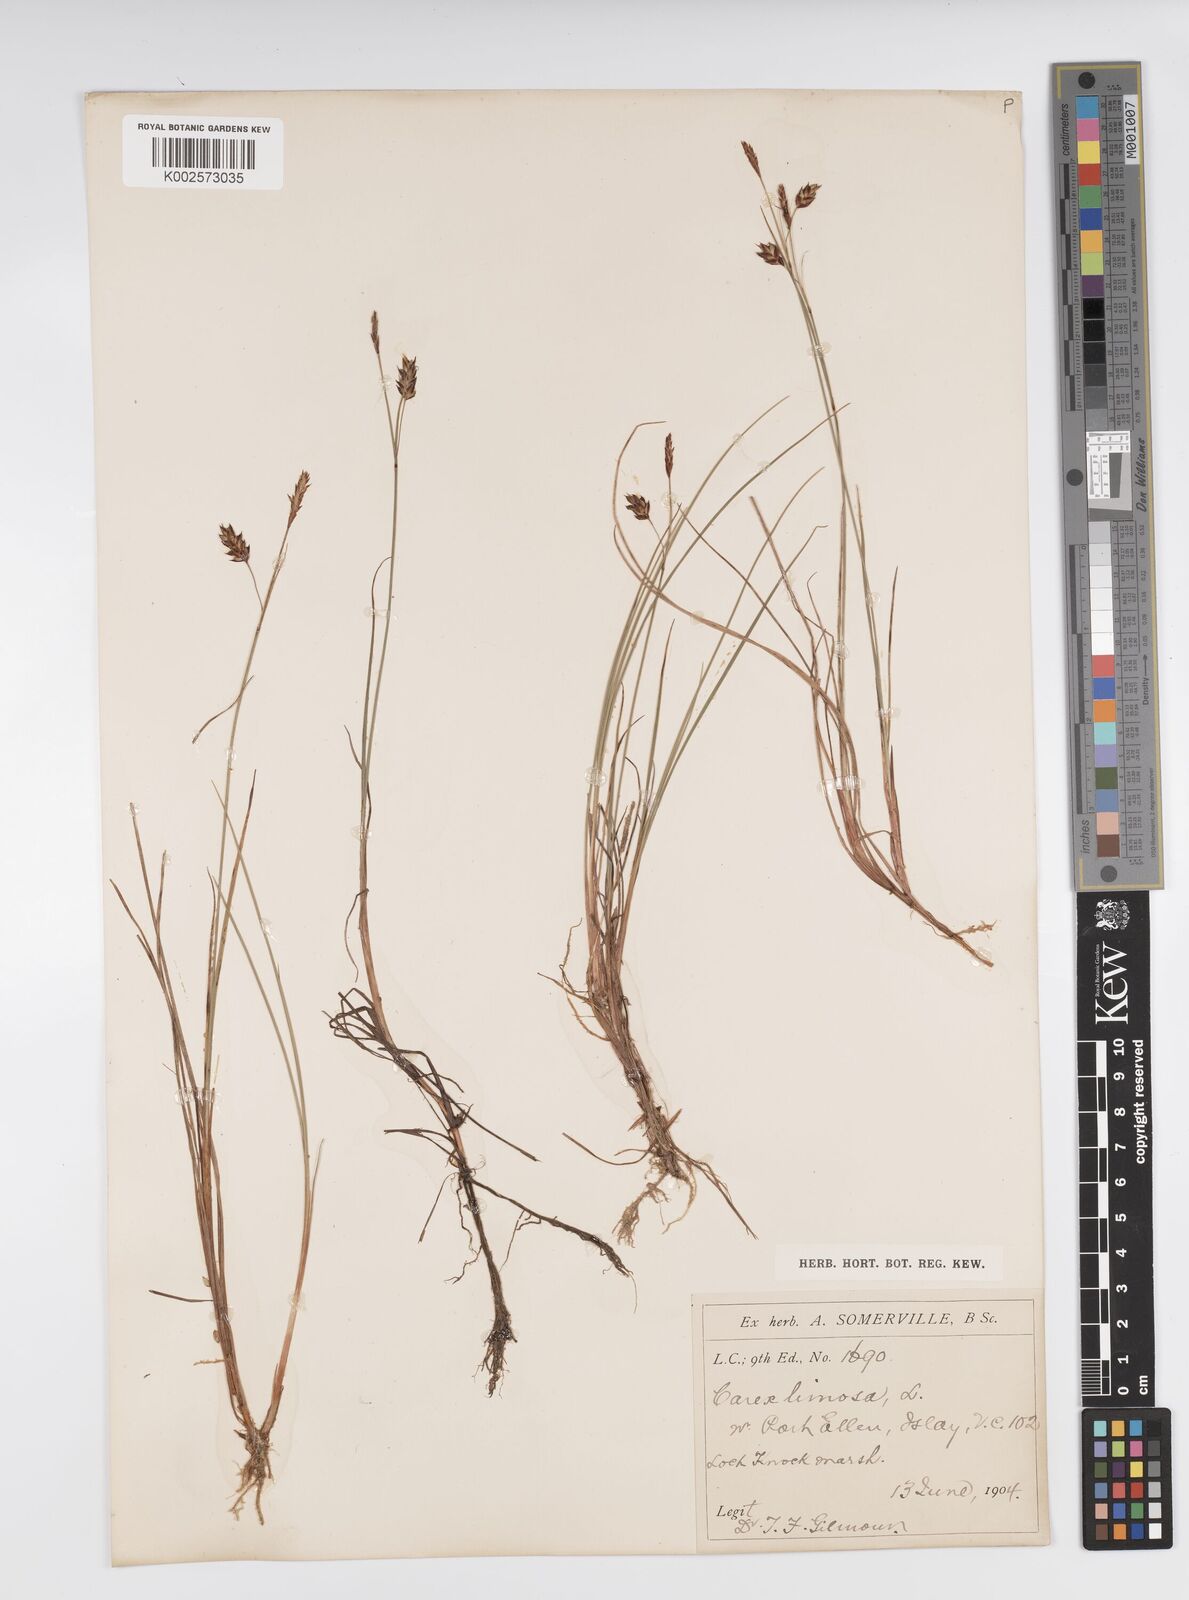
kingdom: Plantae
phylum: Tracheophyta
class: Liliopsida
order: Poales
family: Cyperaceae
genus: Carex
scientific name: Carex limosa
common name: Bog sedge
